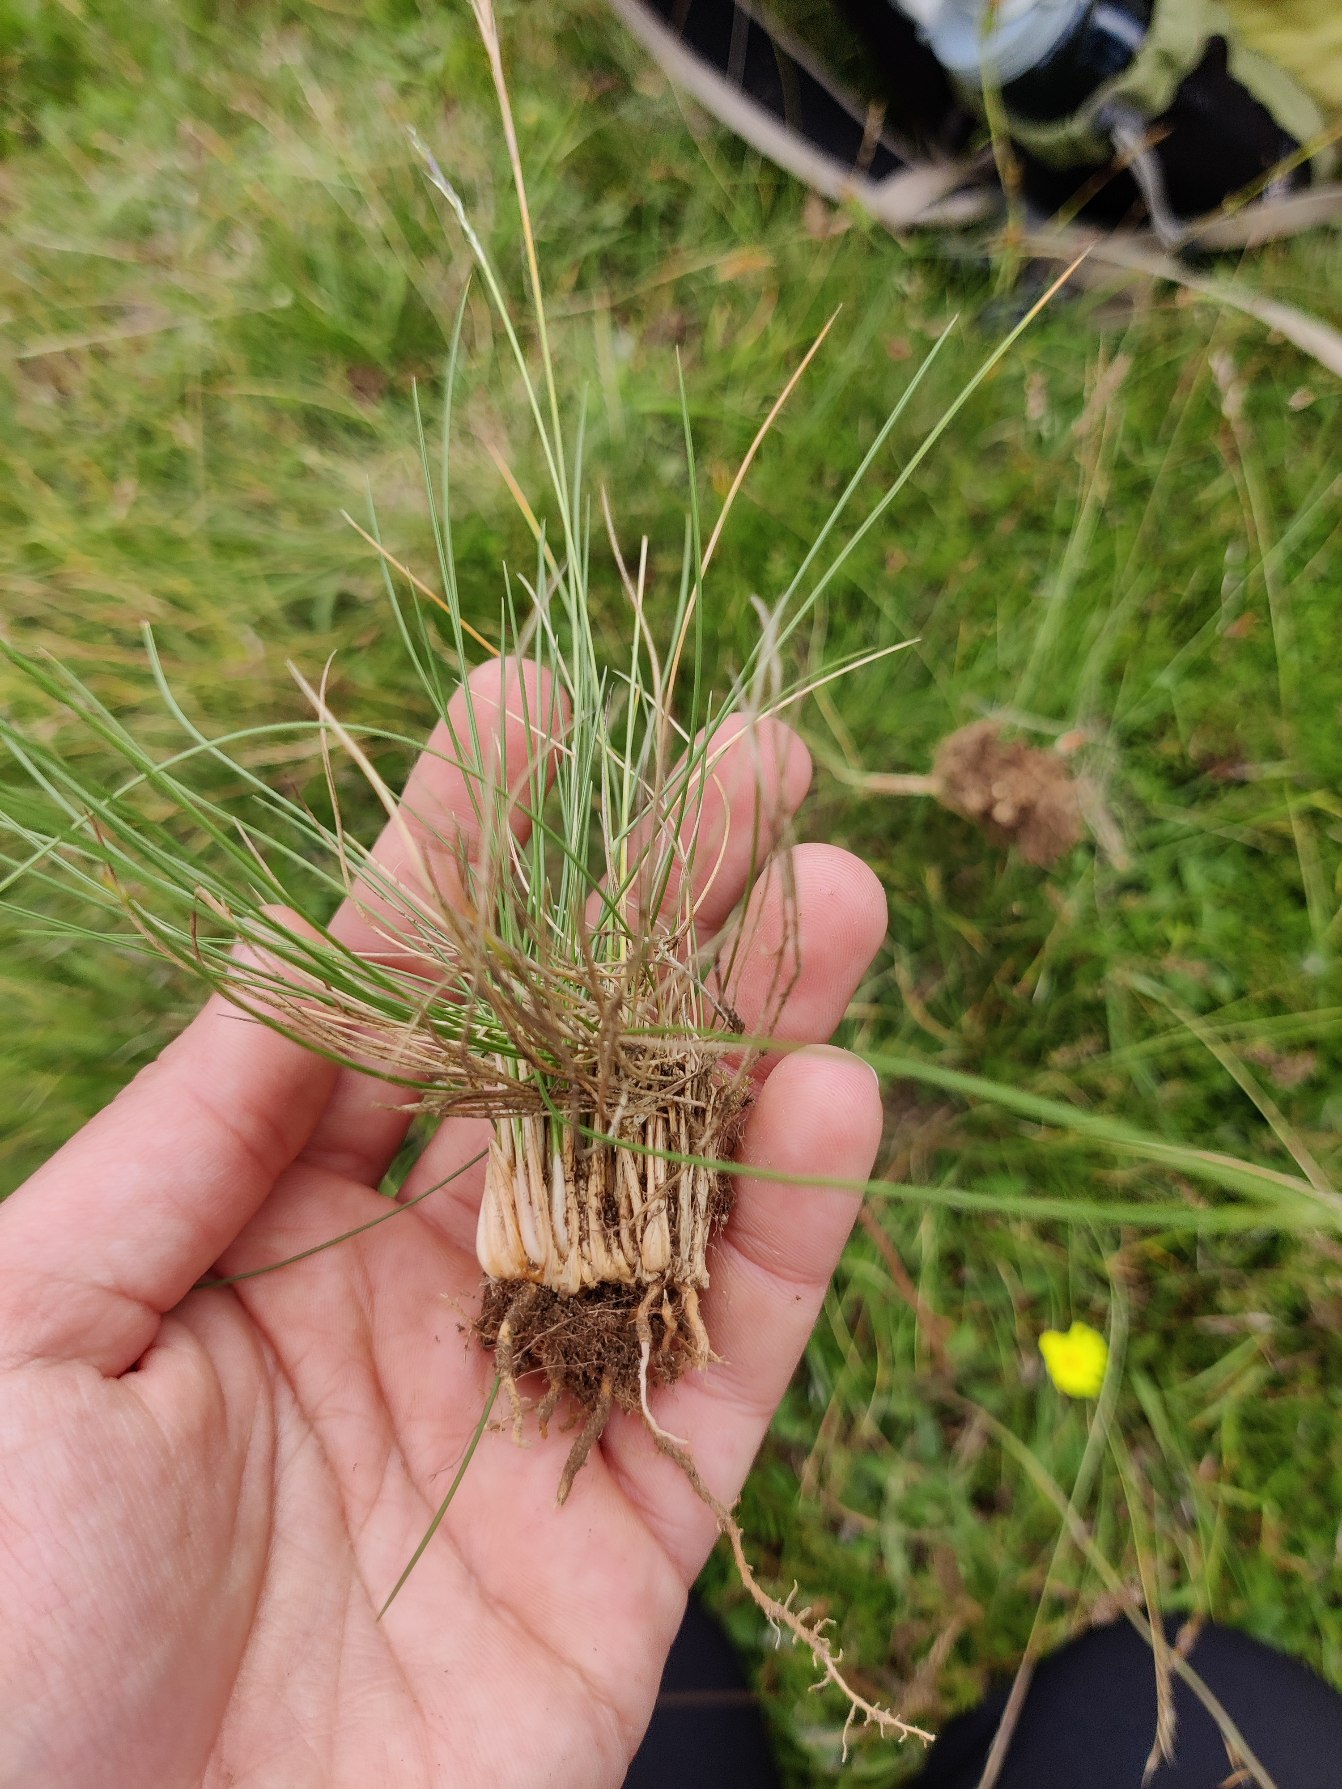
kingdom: Plantae
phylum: Tracheophyta
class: Liliopsida
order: Poales
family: Poaceae
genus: Nardus
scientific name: Nardus stricta
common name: Katteskæg
